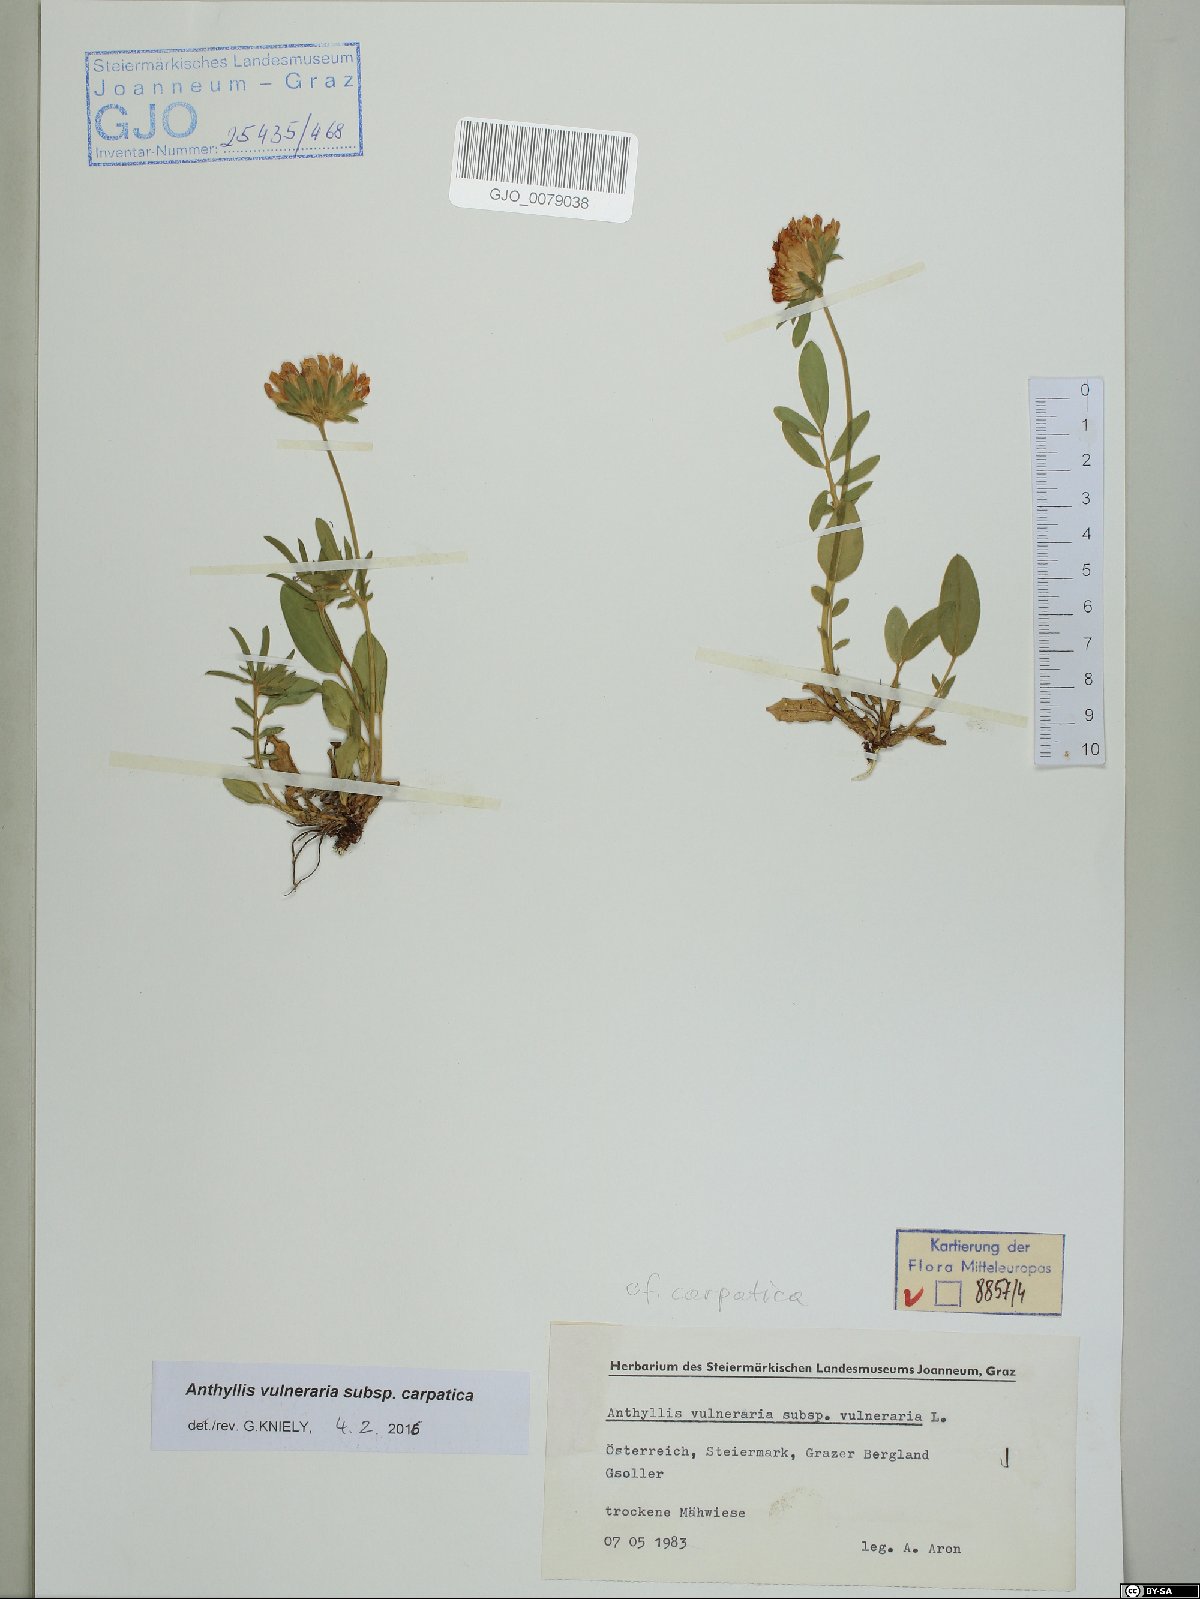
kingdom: Plantae
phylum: Tracheophyta
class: Magnoliopsida
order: Fabales
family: Fabaceae
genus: Anthyllis
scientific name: Anthyllis vulneraria
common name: Kidney vetch
